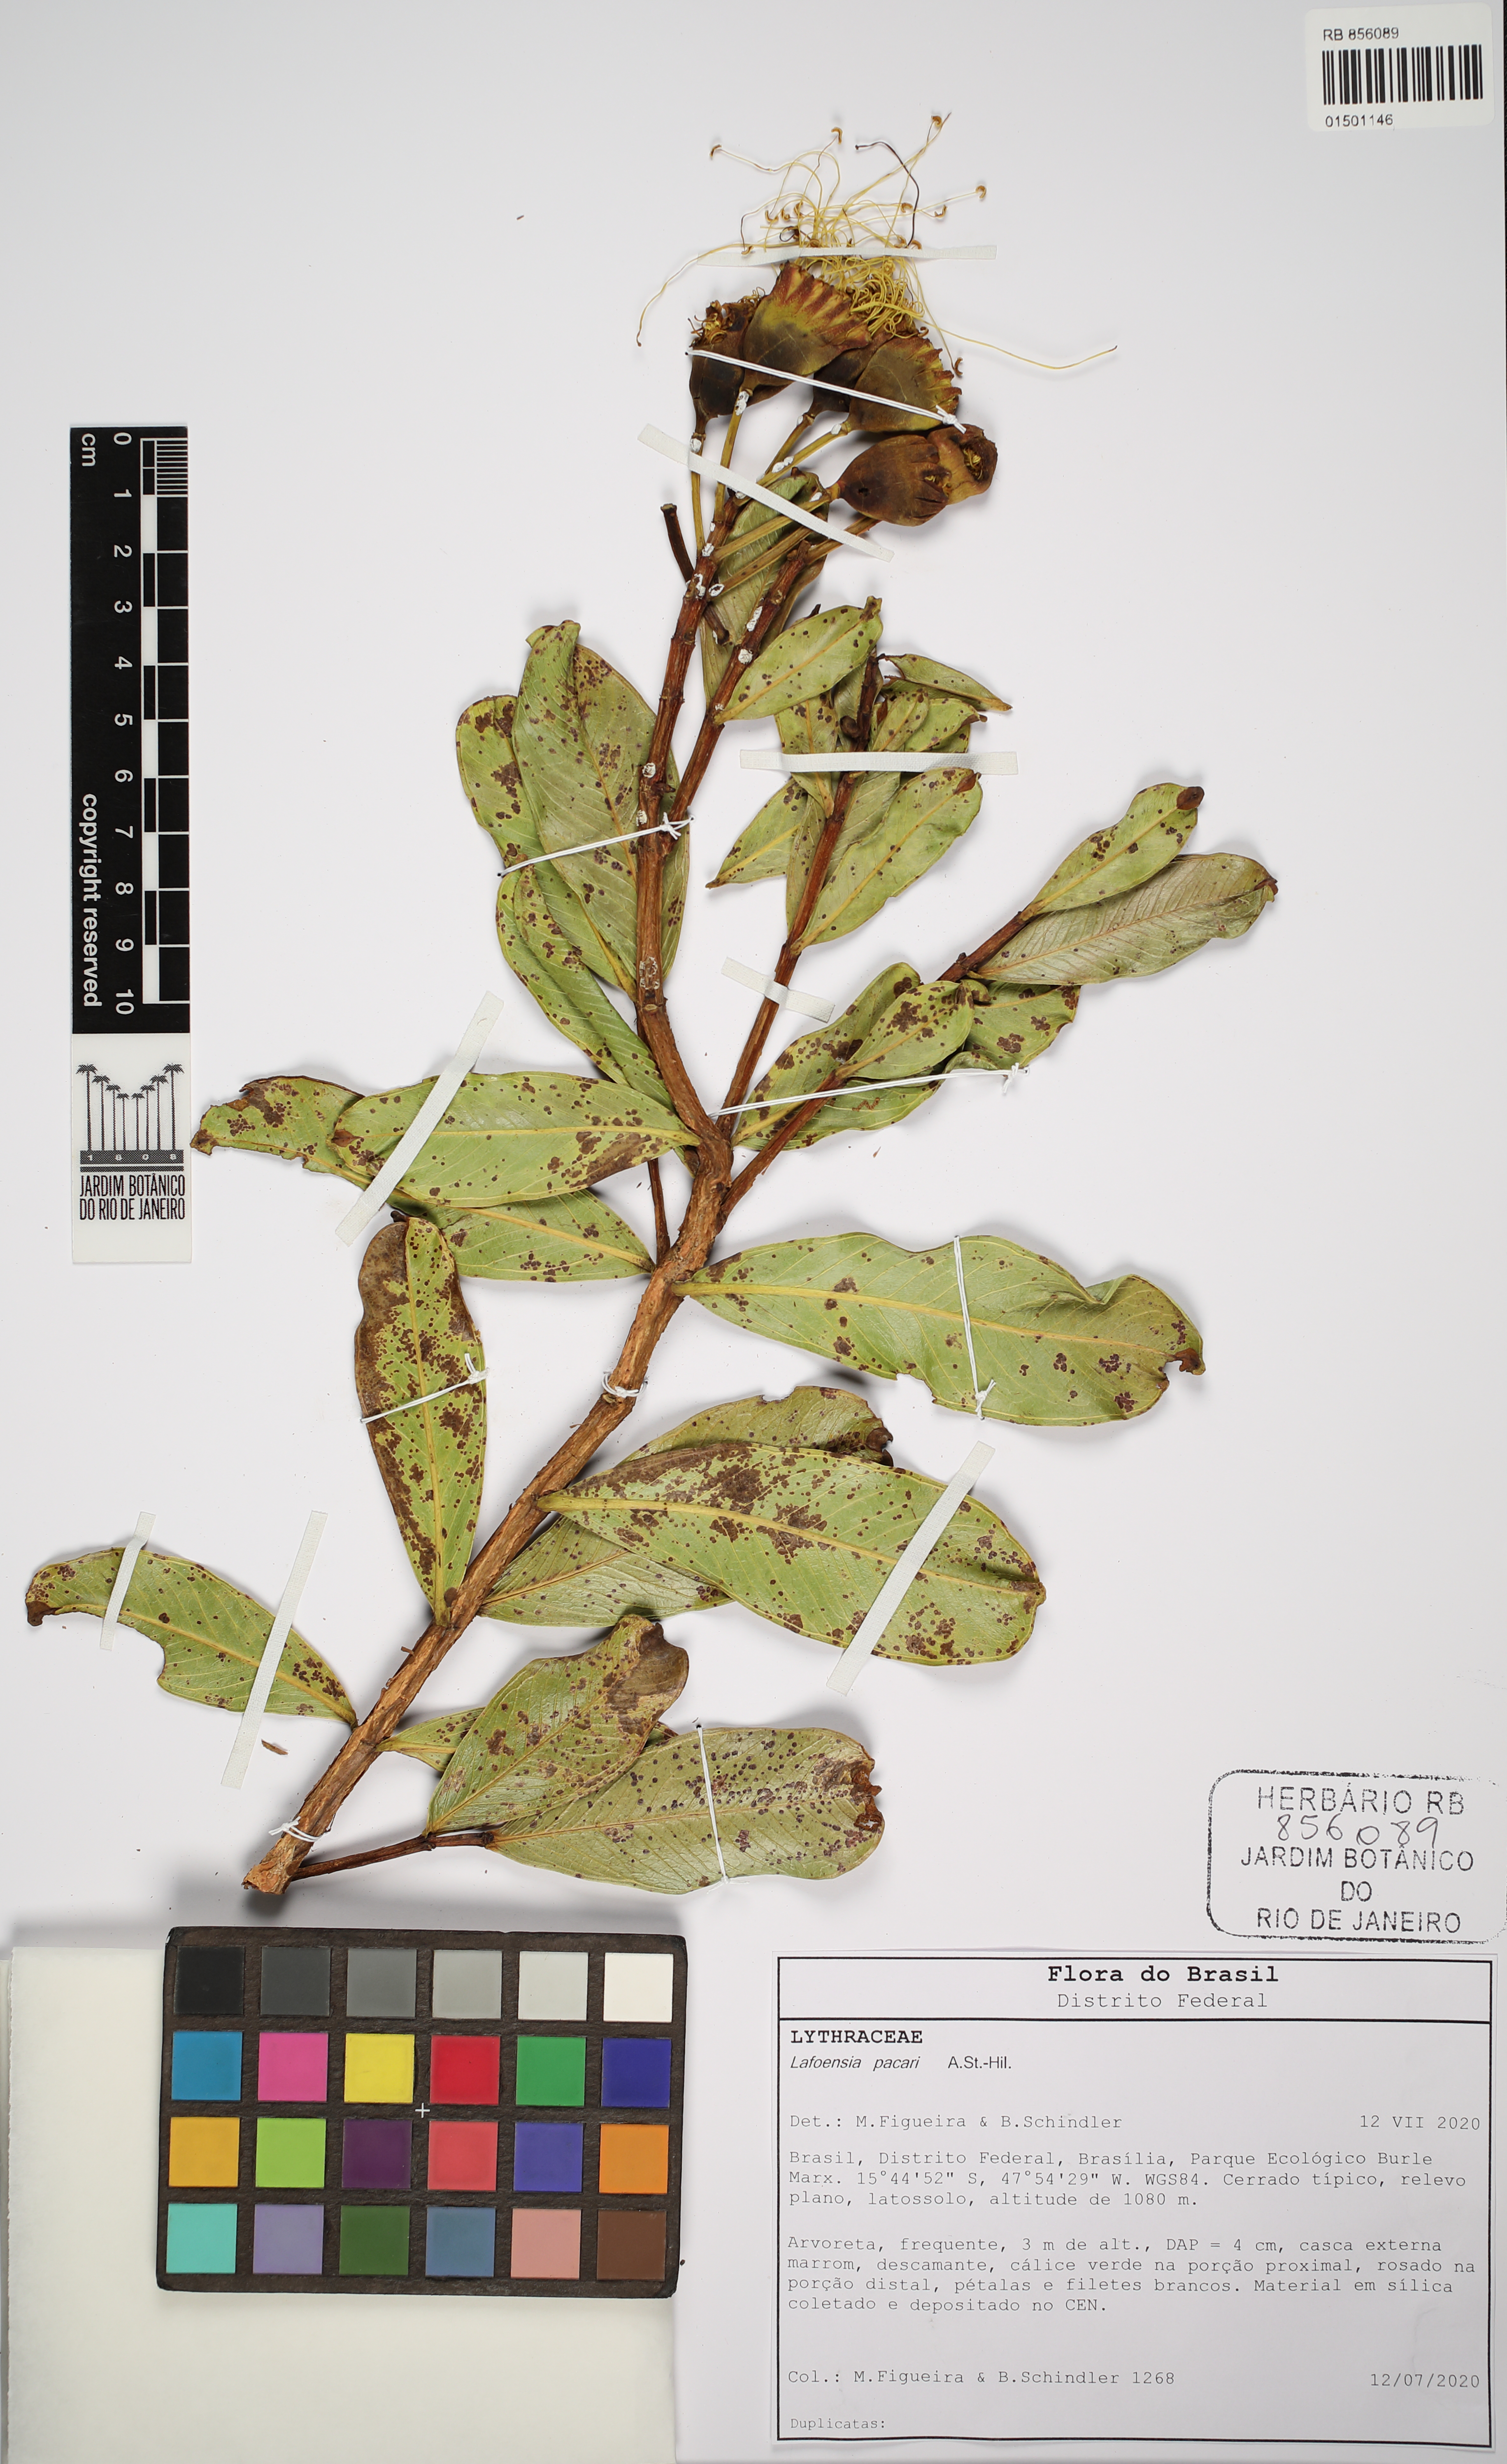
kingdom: Plantae
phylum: Tracheophyta
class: Magnoliopsida
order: Myrtales
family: Lythraceae
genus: Lafoensia
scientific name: Lafoensia pacari
